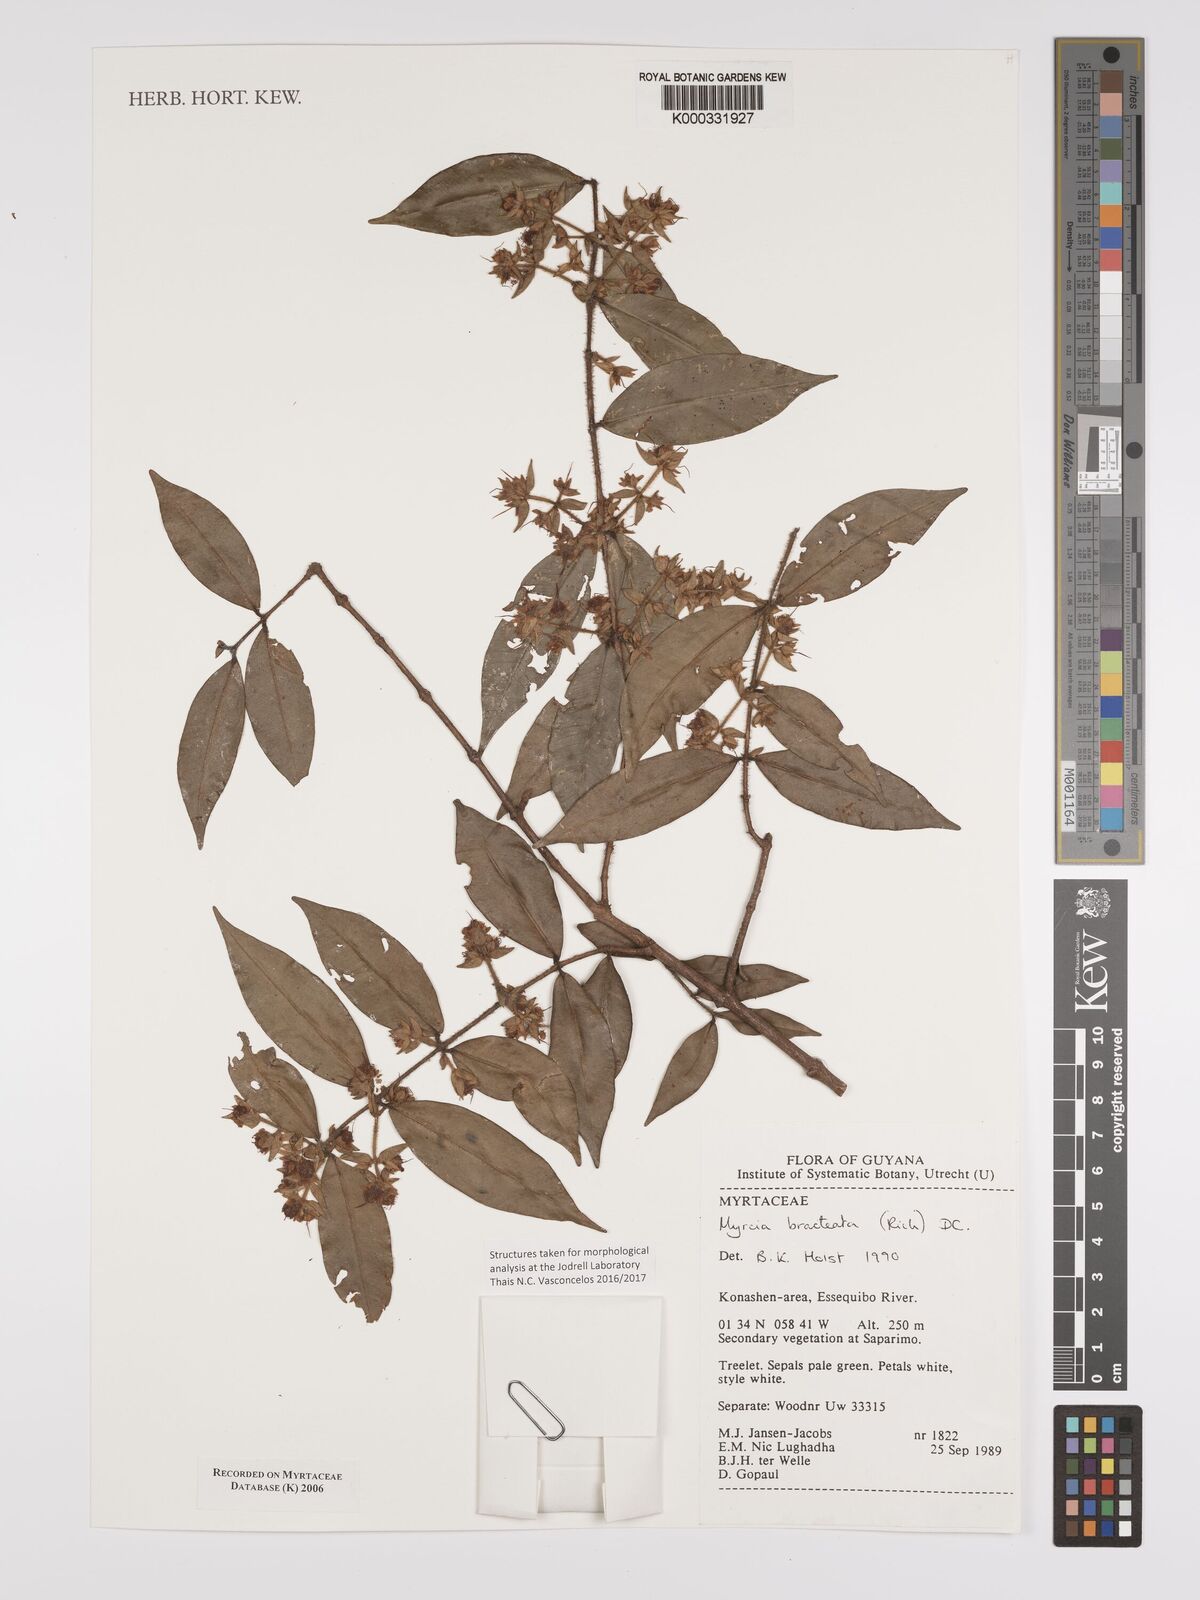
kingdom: Plantae
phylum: Tracheophyta
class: Magnoliopsida
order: Myrtales
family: Myrtaceae
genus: Myrcia
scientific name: Myrcia bracteata
